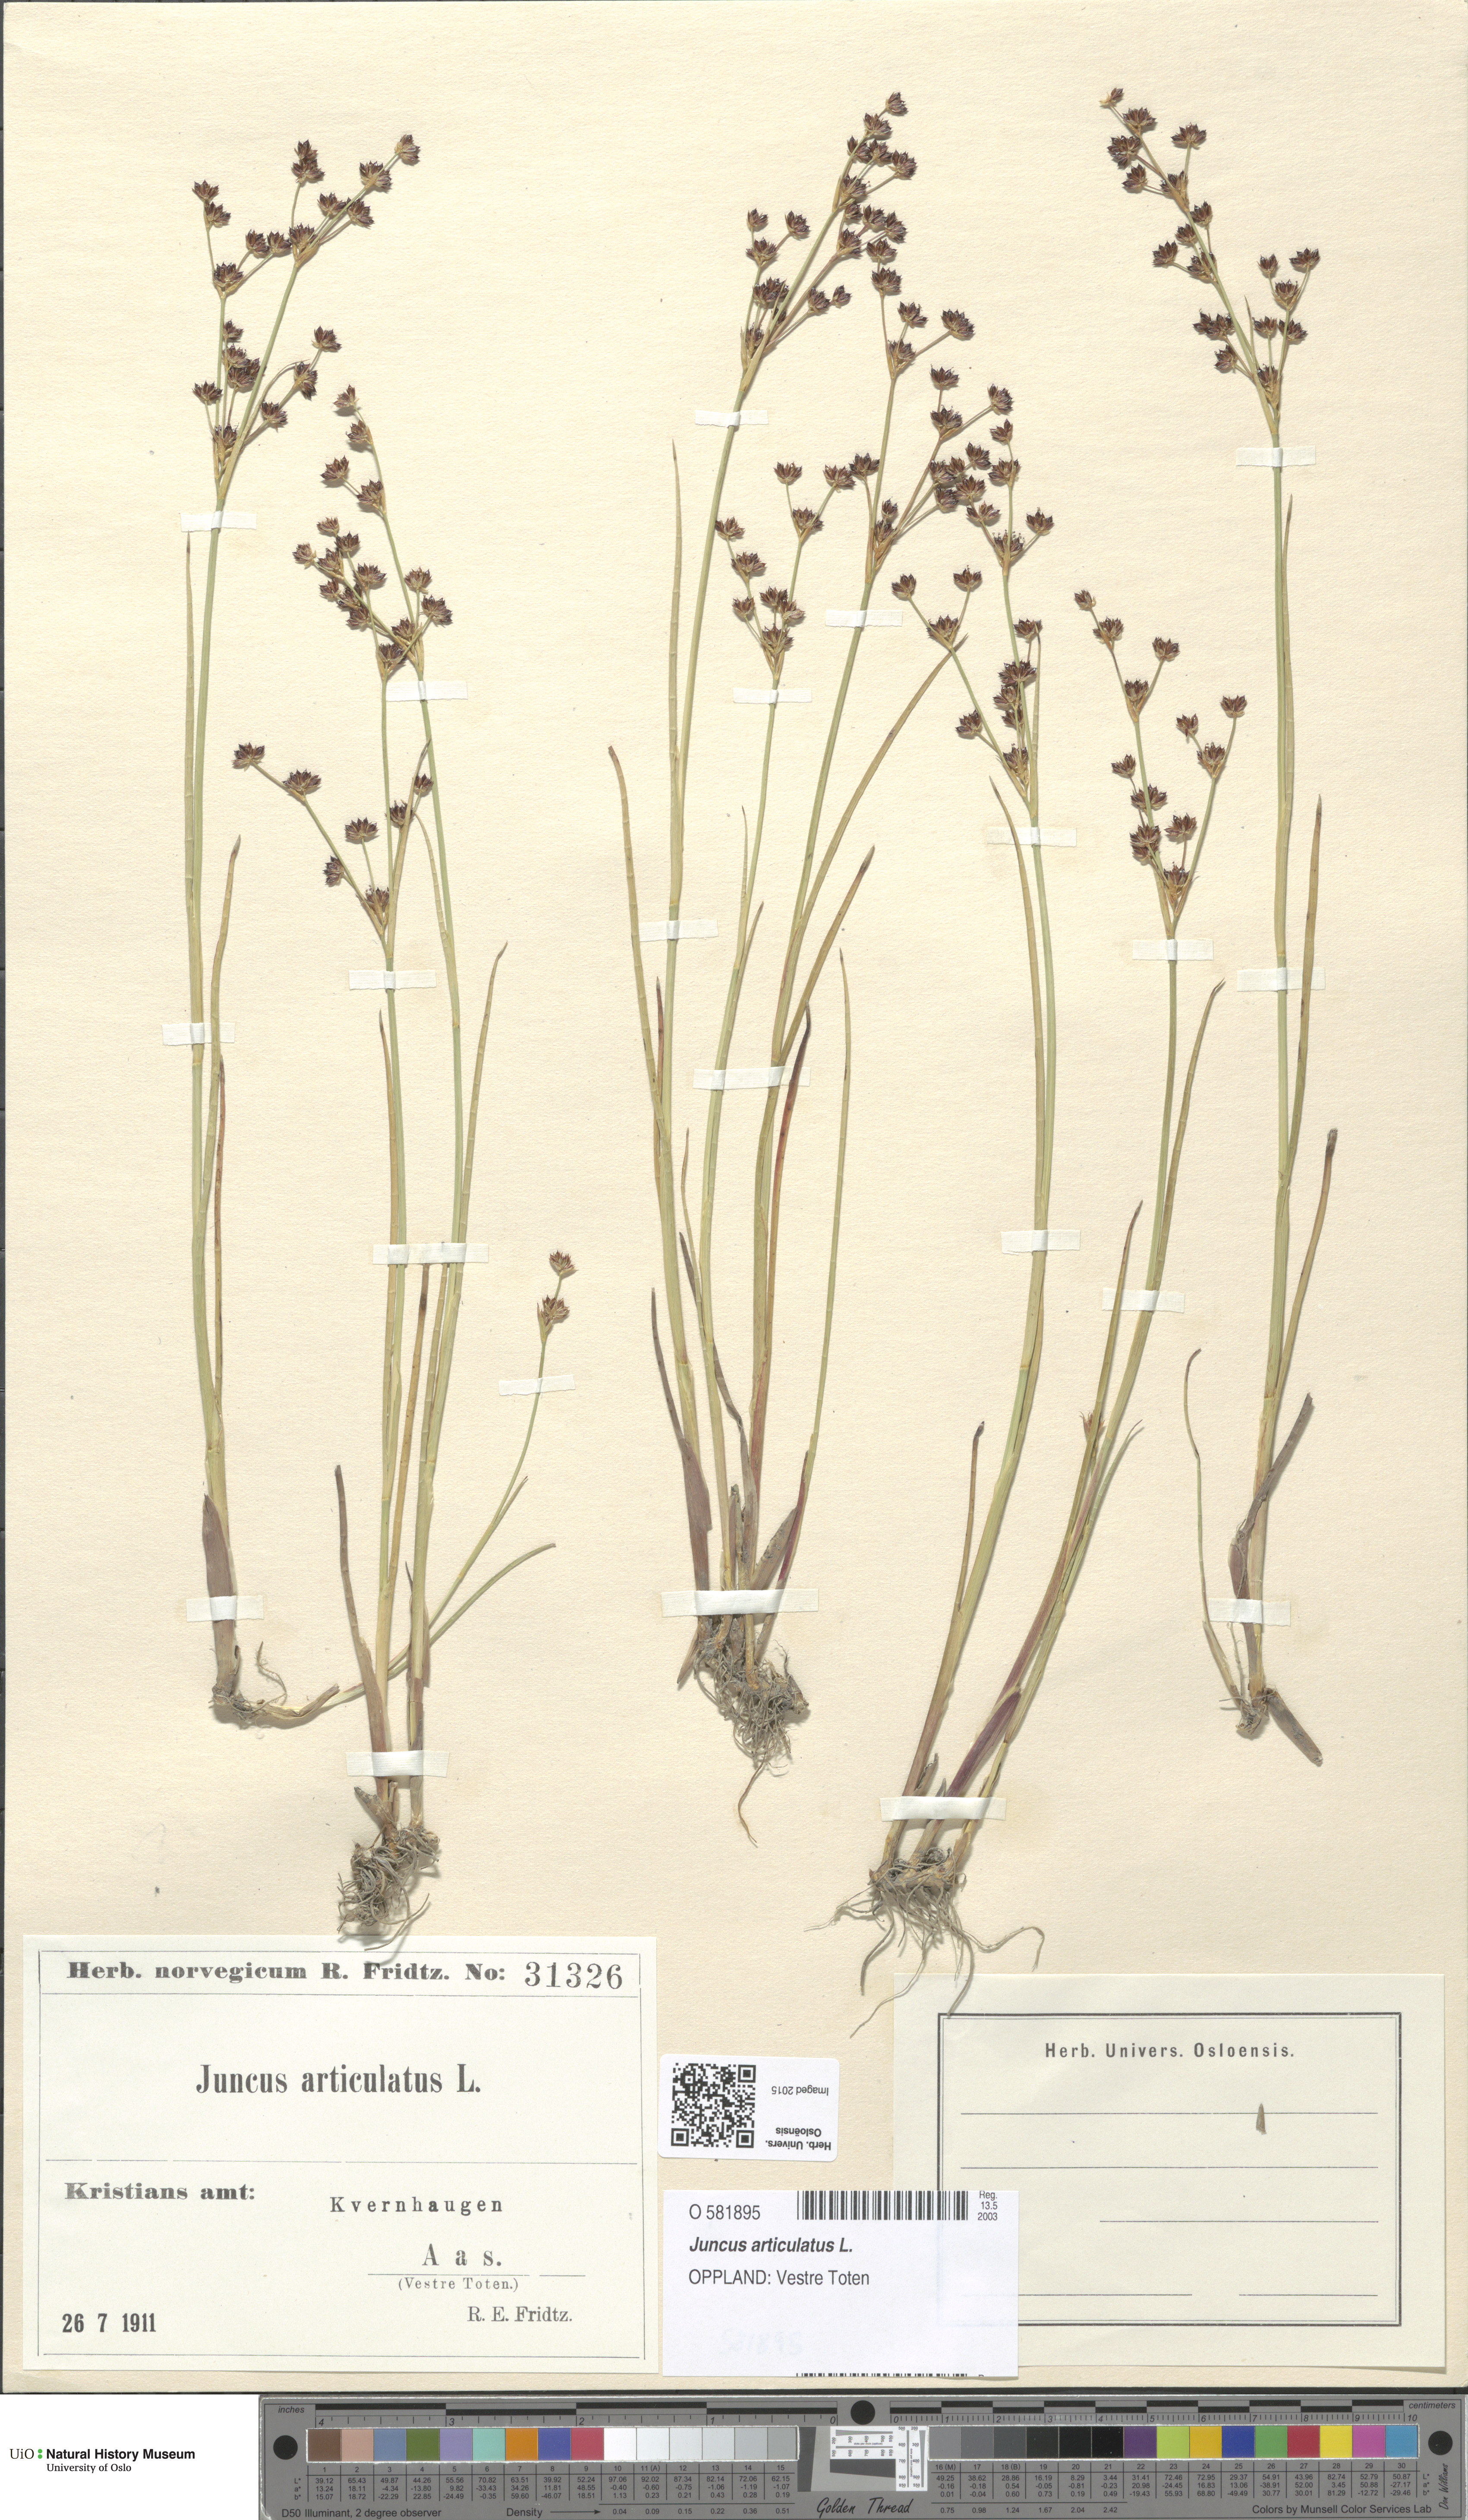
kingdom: Plantae
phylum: Tracheophyta
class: Liliopsida
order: Poales
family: Juncaceae
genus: Juncus
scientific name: Juncus articulatus
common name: Jointed rush
